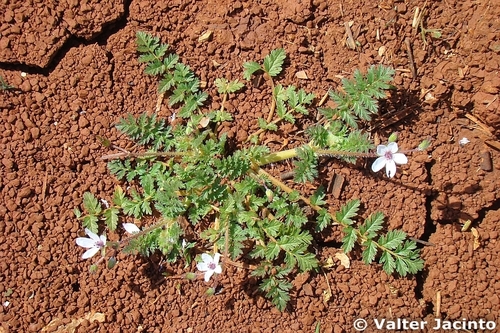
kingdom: Plantae
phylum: Tracheophyta
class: Magnoliopsida
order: Geraniales
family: Geraniaceae
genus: Erodium
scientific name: Erodium acaule
